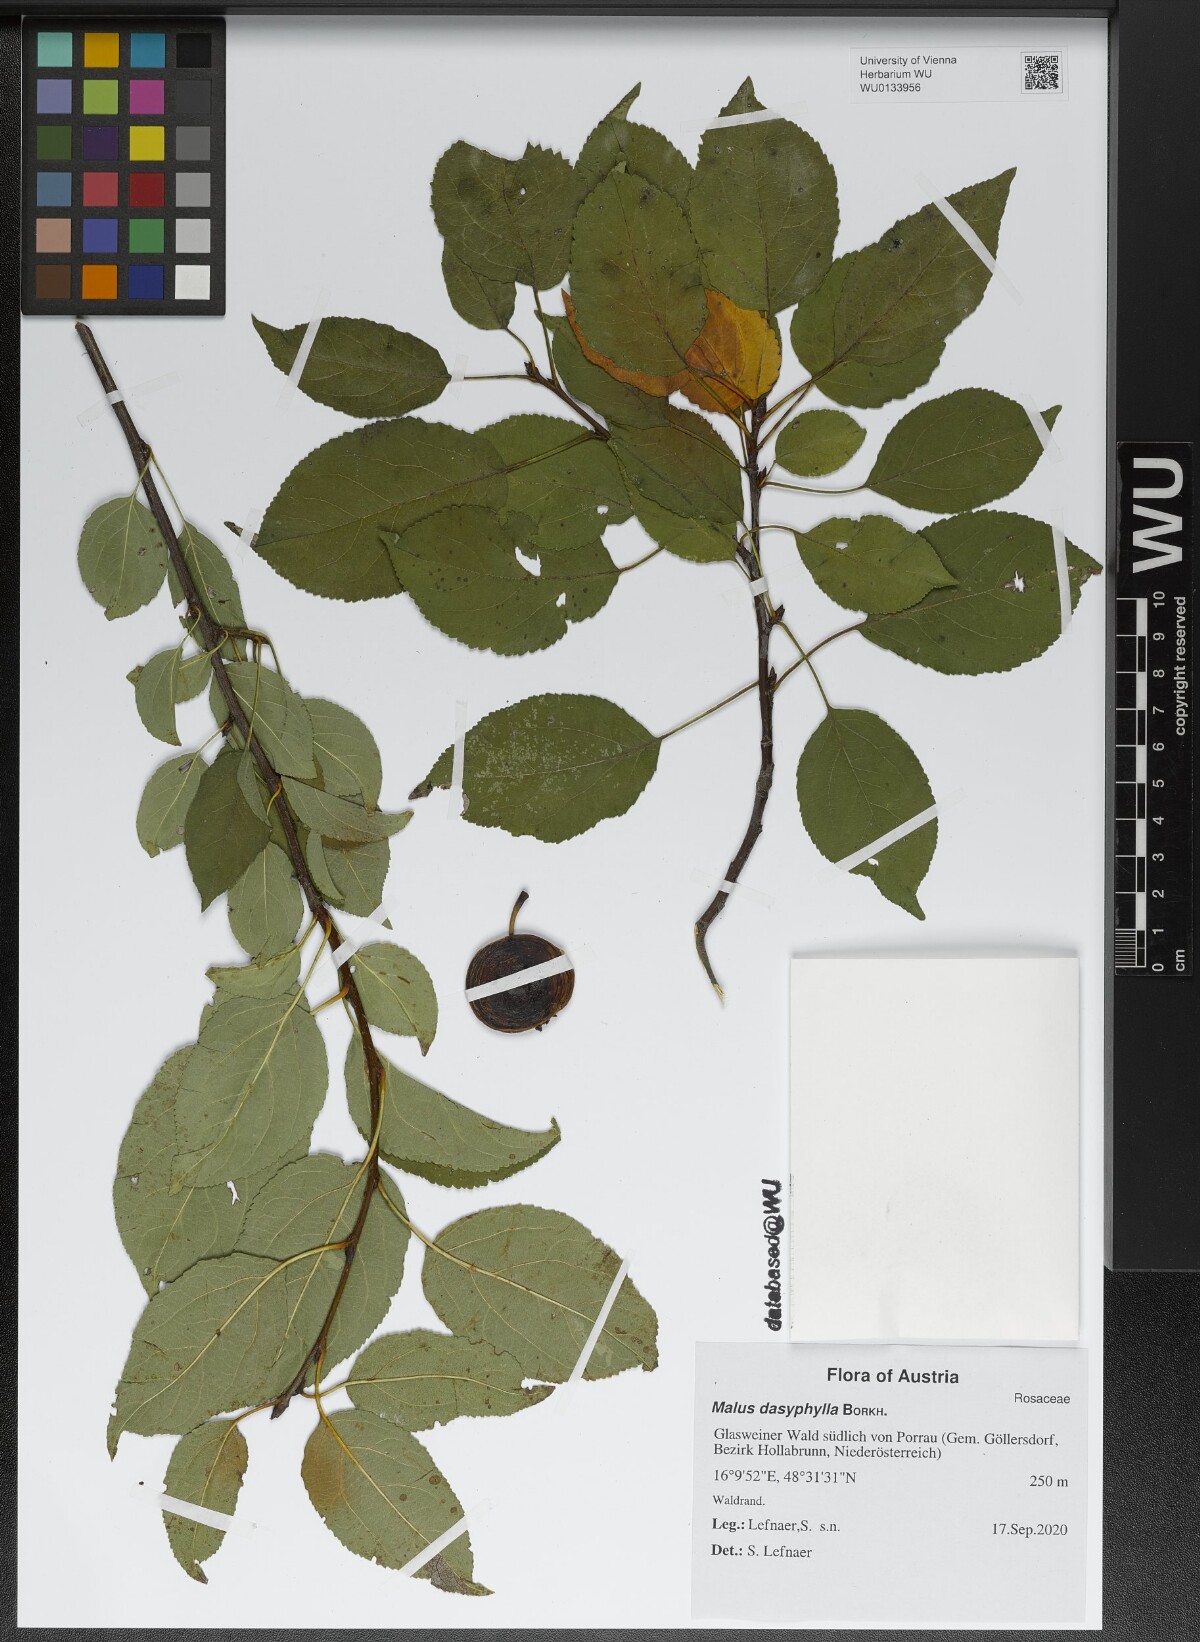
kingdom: Plantae
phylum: Tracheophyta
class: Magnoliopsida
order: Rosales
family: Rosaceae
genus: Malus
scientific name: Malus dasyphylla
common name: Paradise apple
